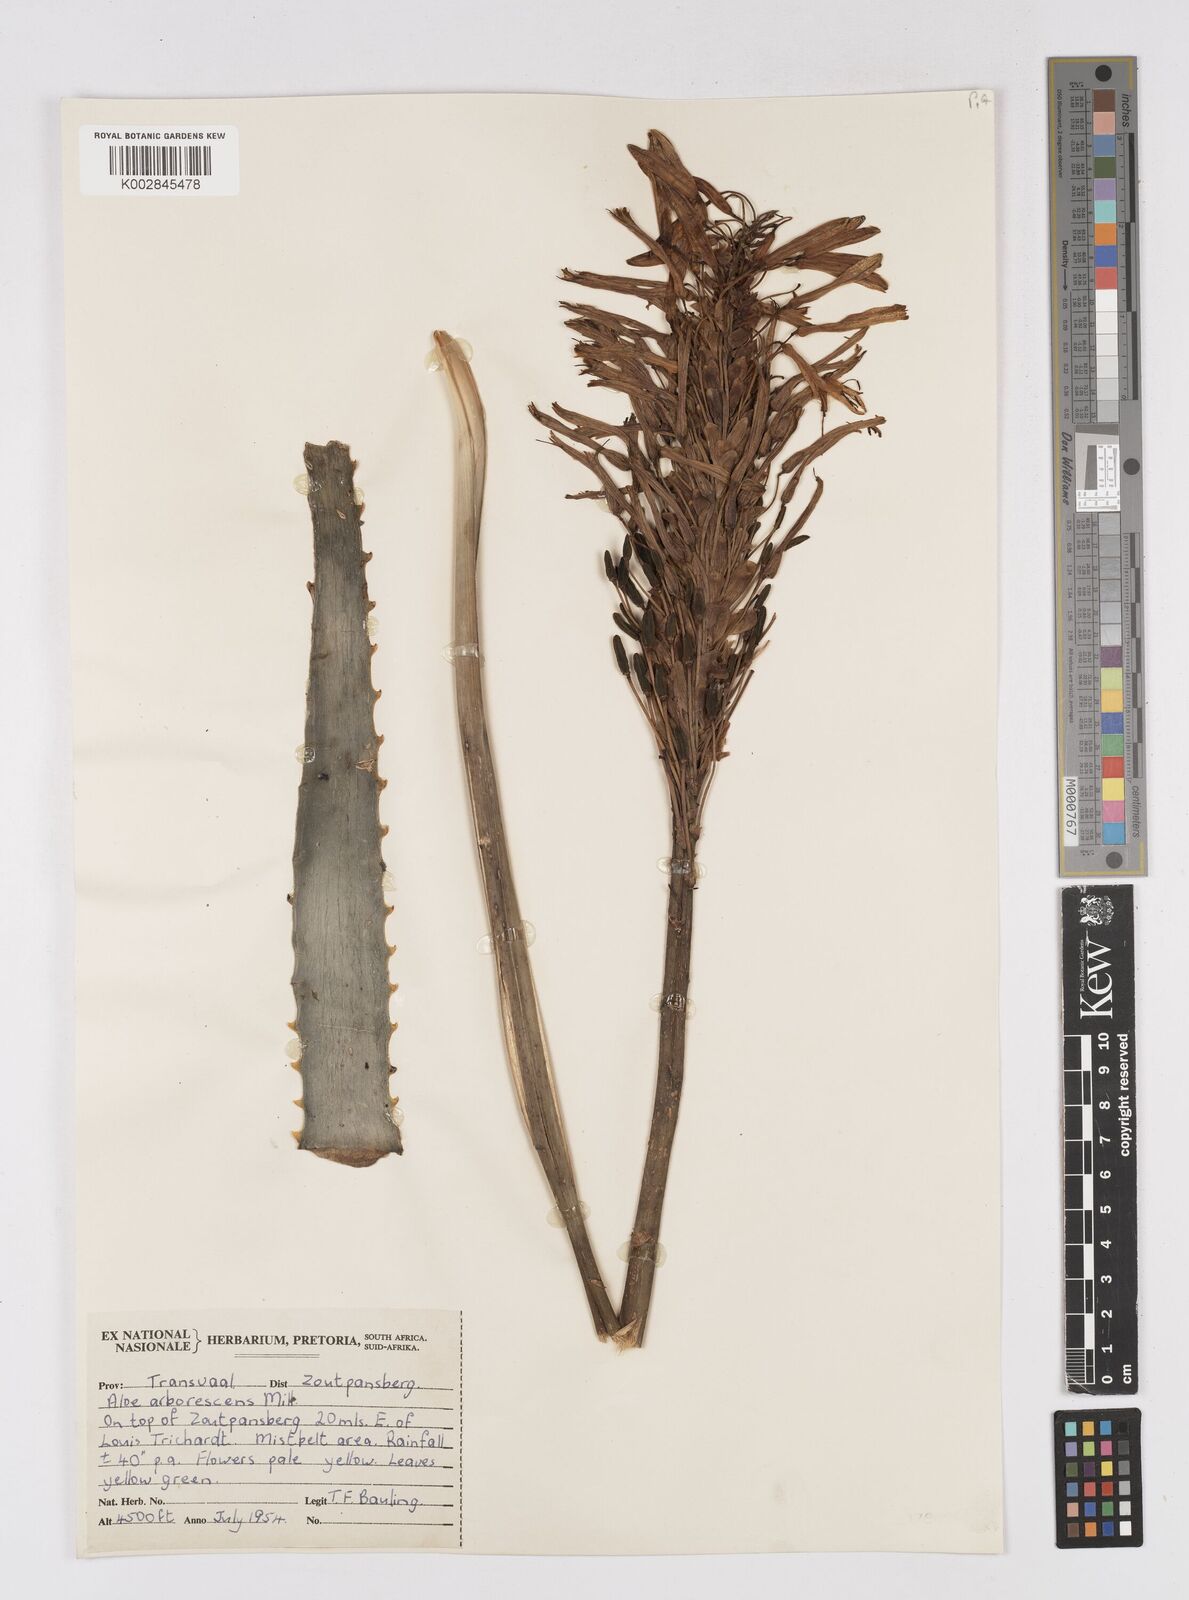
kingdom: Plantae
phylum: Tracheophyta
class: Liliopsida
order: Asparagales
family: Asphodelaceae
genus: Aloe
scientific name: Aloe arborescens
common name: Candelabra aloe
